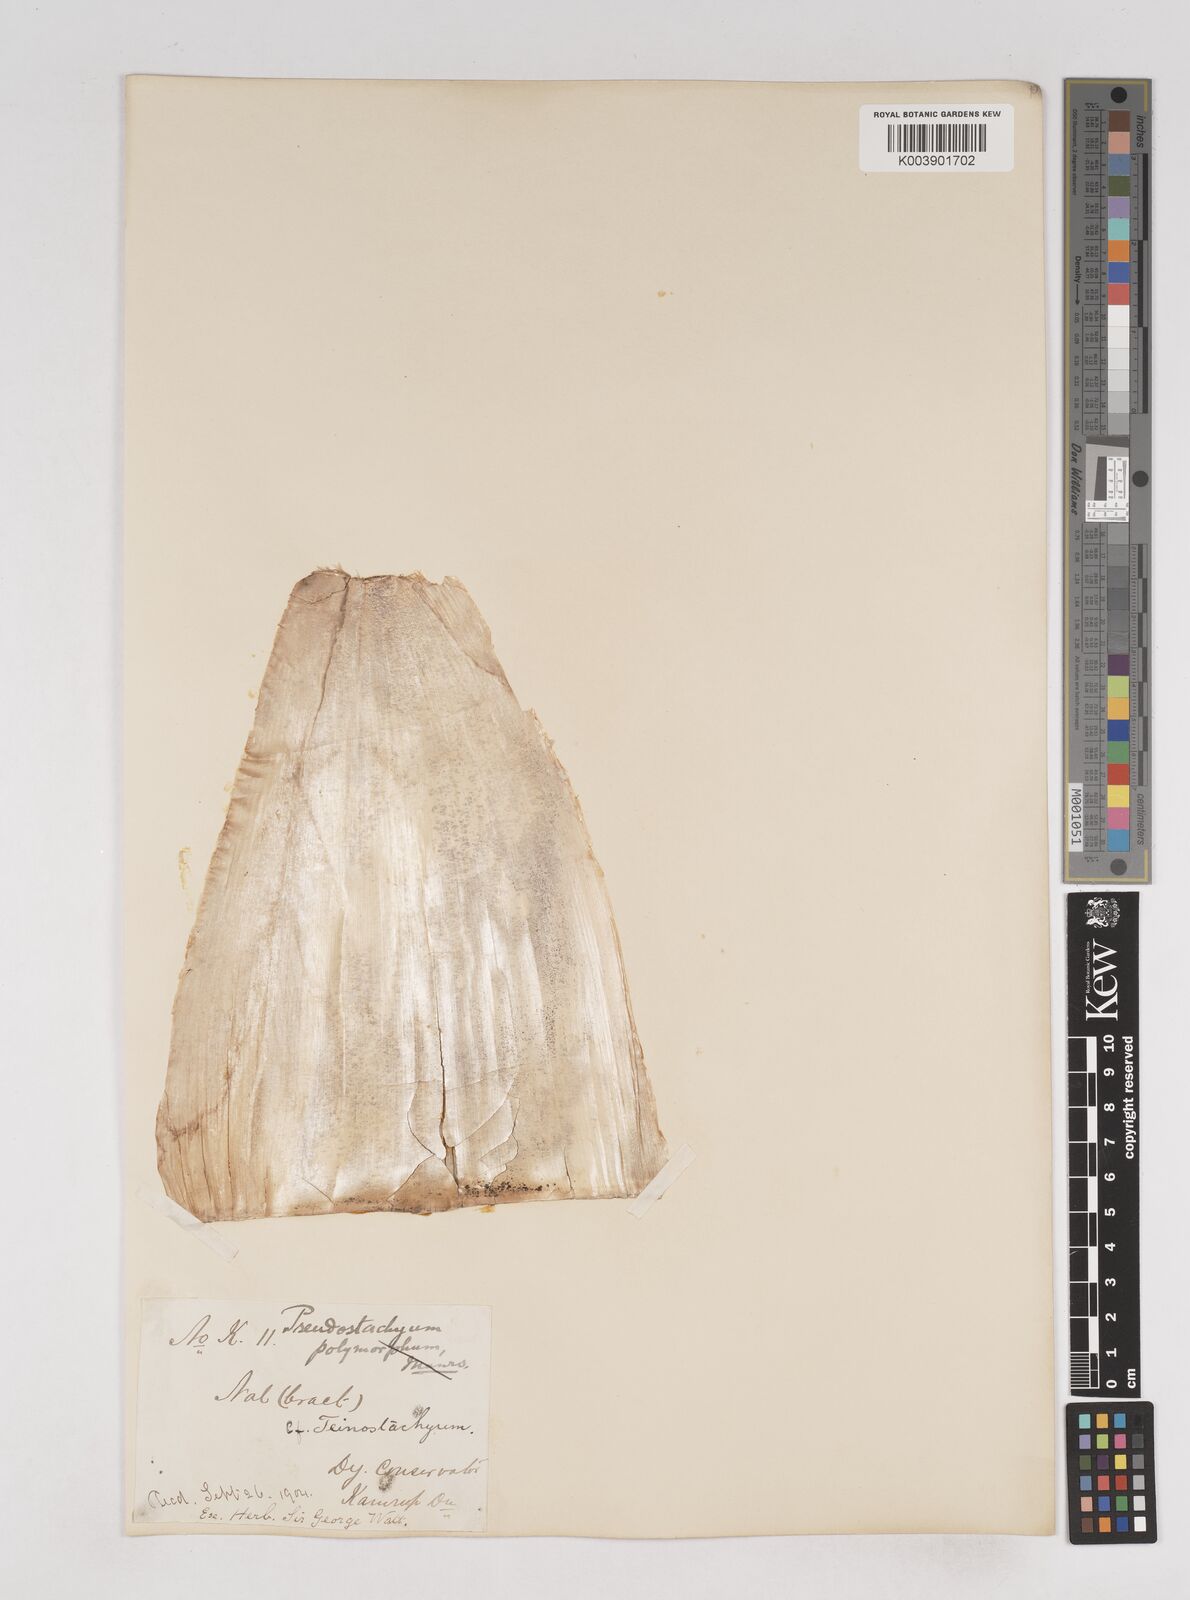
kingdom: Plantae
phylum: Tracheophyta
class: Liliopsida
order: Poales
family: Poaceae
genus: Schizostachyum
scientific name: Schizostachyum dullooa
